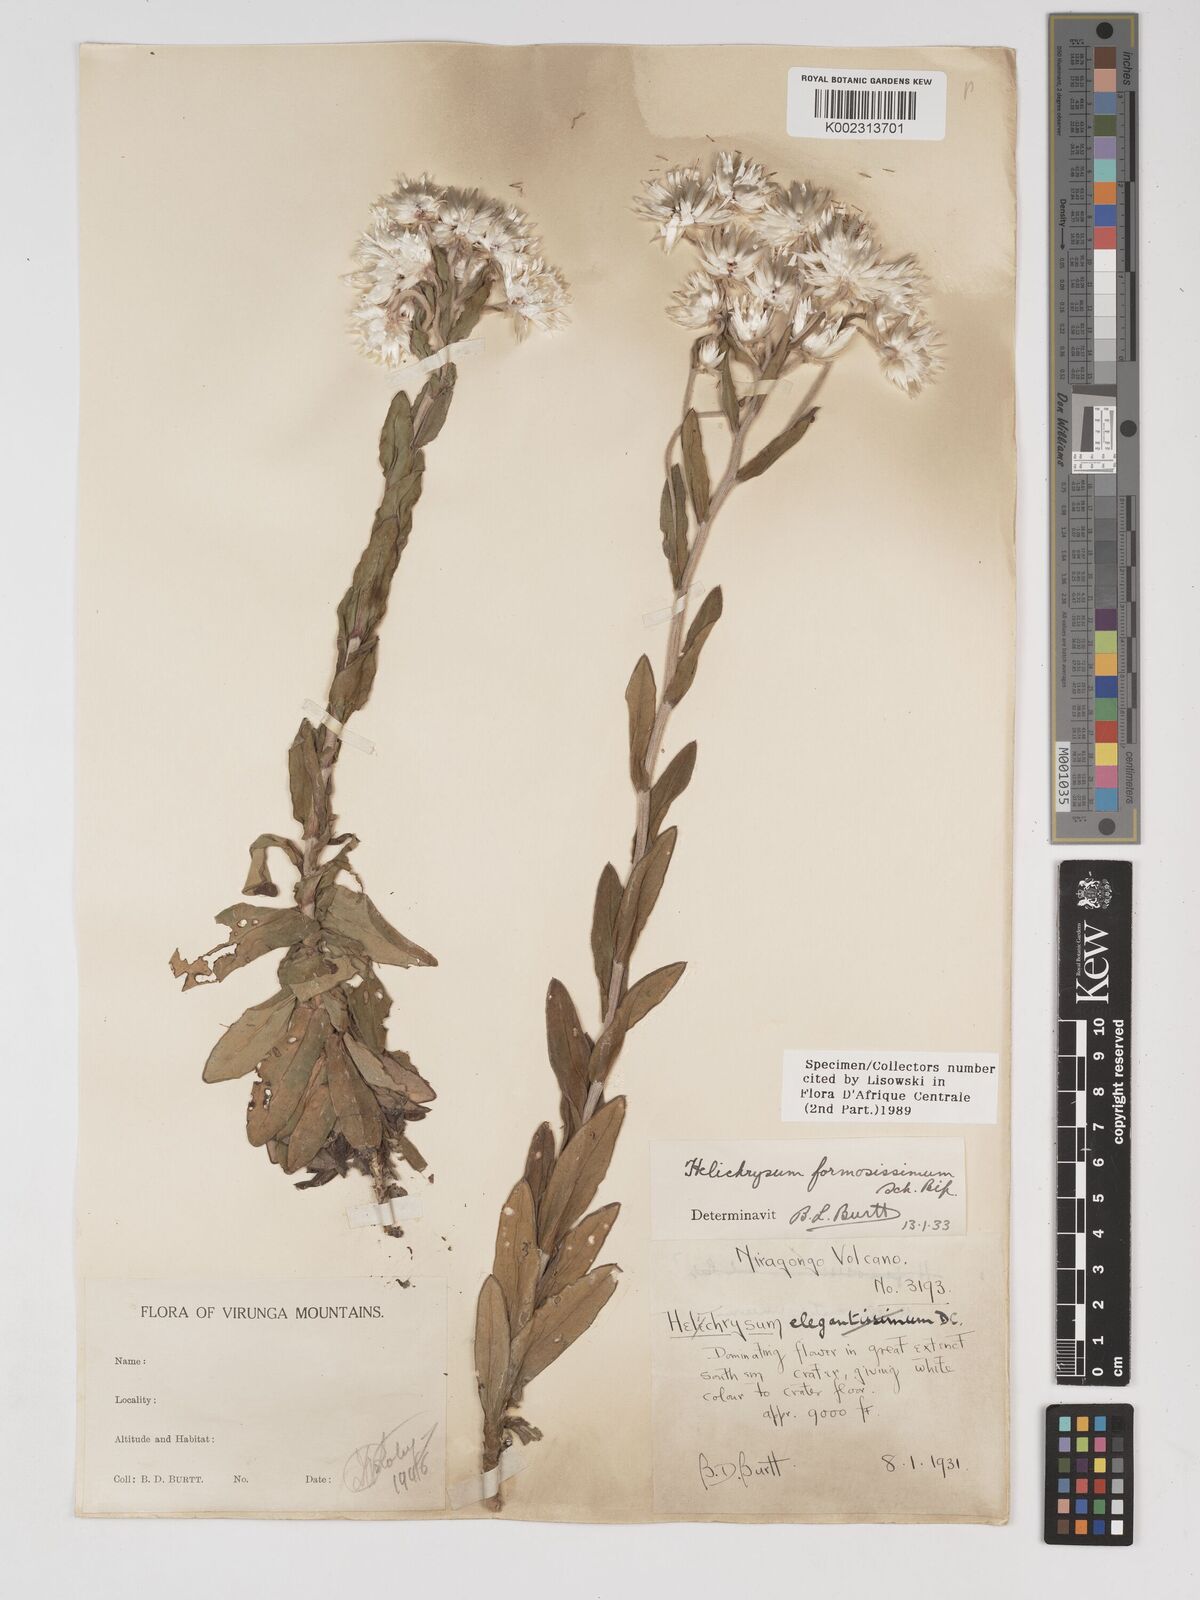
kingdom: Plantae
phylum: Tracheophyta
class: Magnoliopsida
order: Asterales
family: Asteraceae
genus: Helichrysum
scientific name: Helichrysum formosissimum
